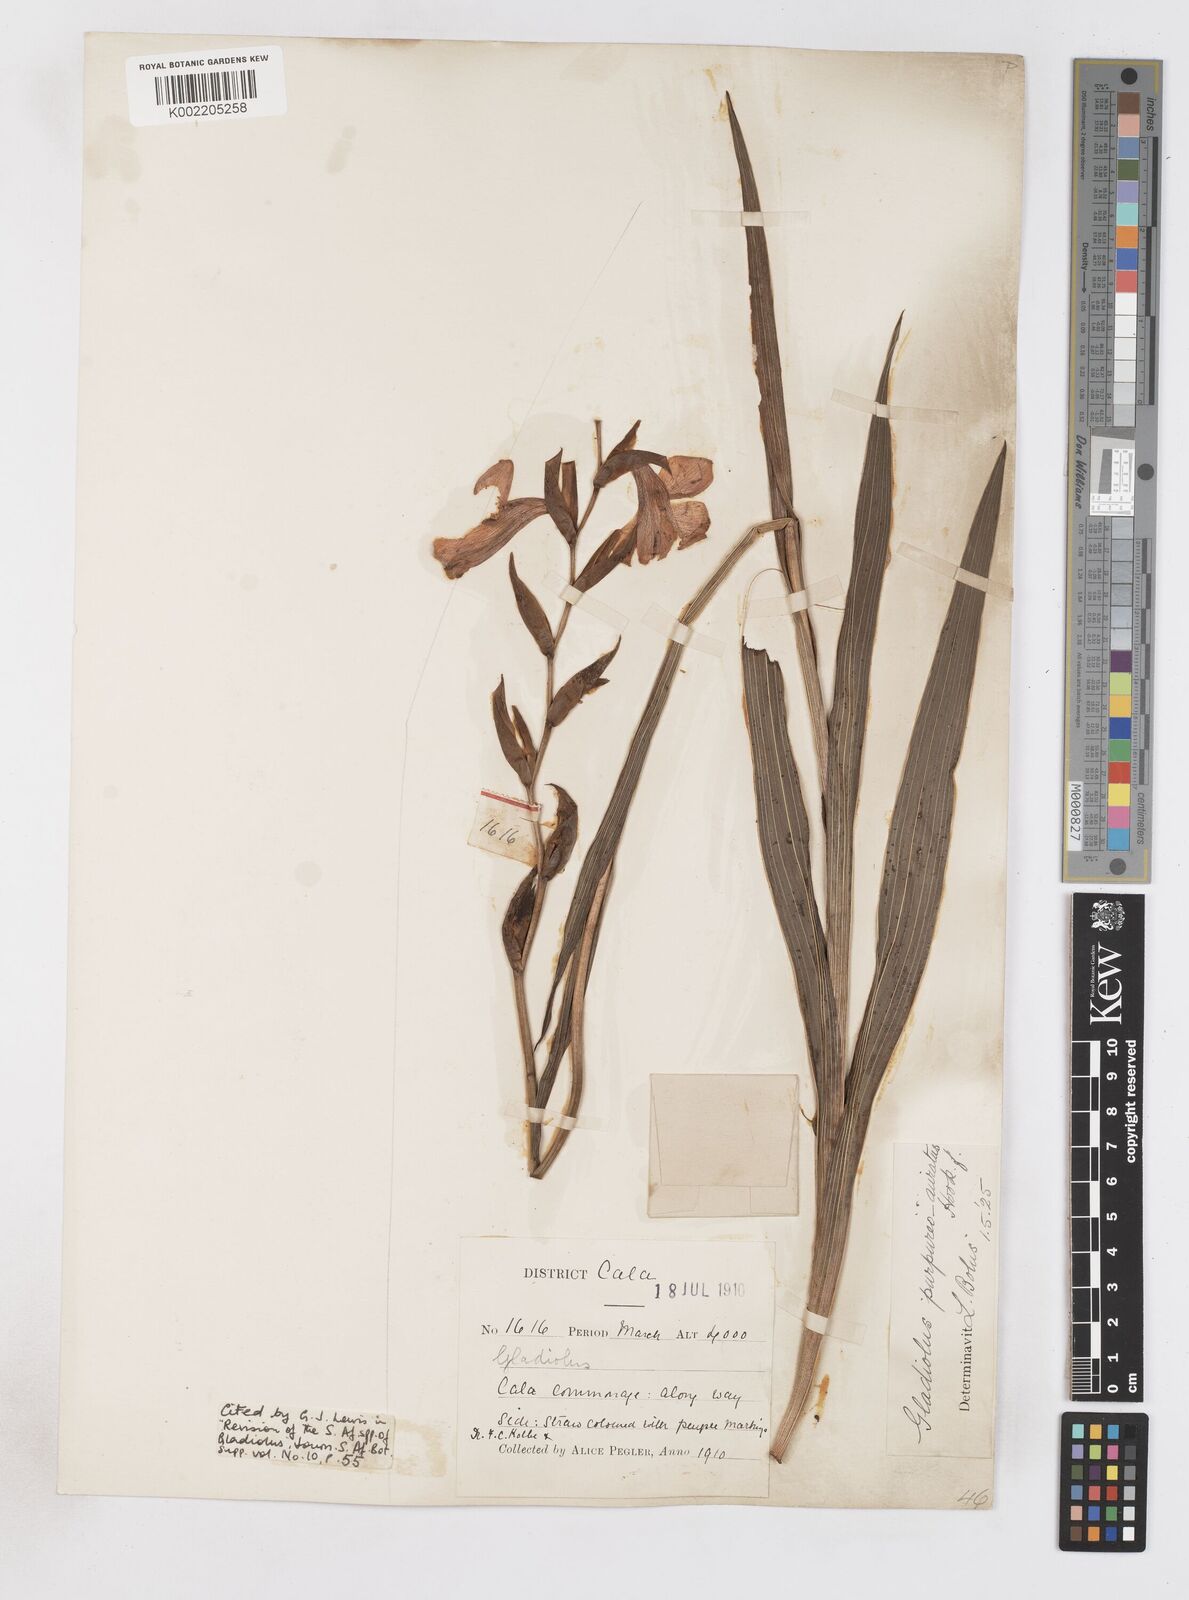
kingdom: Plantae
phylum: Tracheophyta
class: Liliopsida
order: Asparagales
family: Iridaceae
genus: Gladiolus
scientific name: Gladiolus papilio
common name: Goldblotch gladiolus
